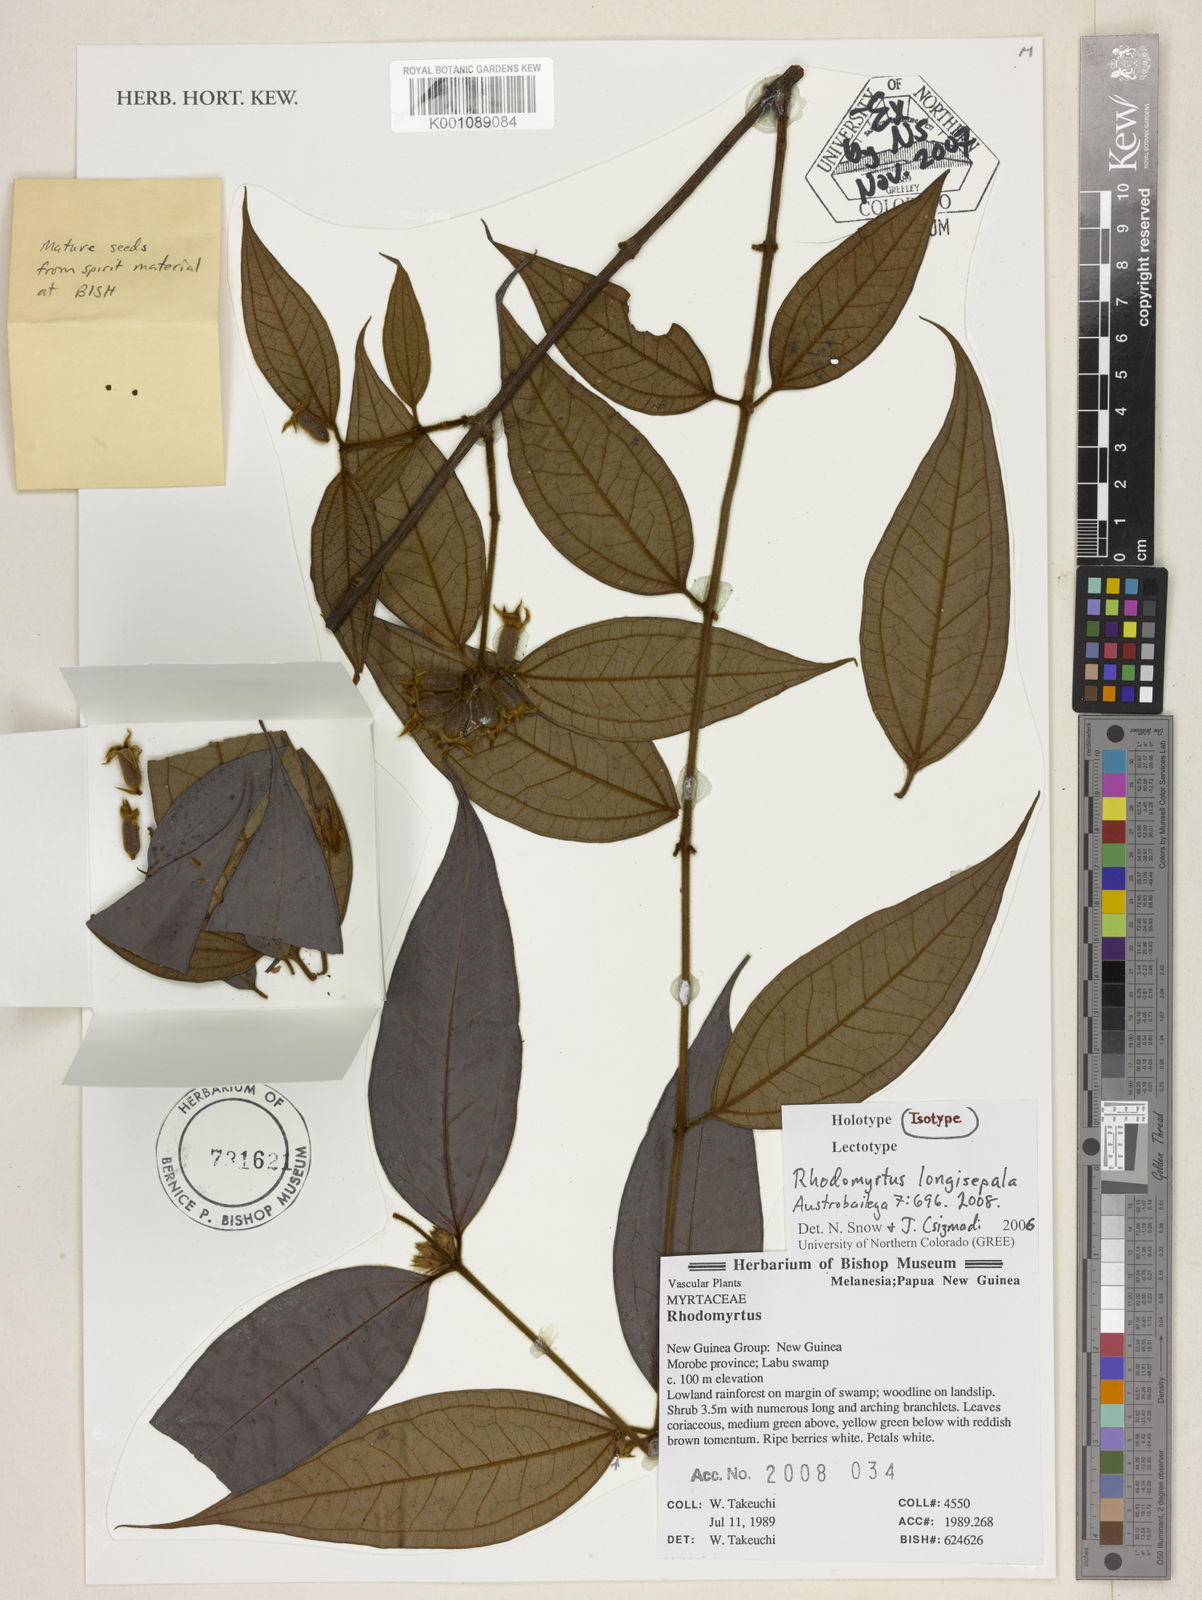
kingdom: Plantae
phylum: Tracheophyta
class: Magnoliopsida
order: Myrtales
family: Myrtaceae
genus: Rhodomyrtus
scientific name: Rhodomyrtus longisepala
